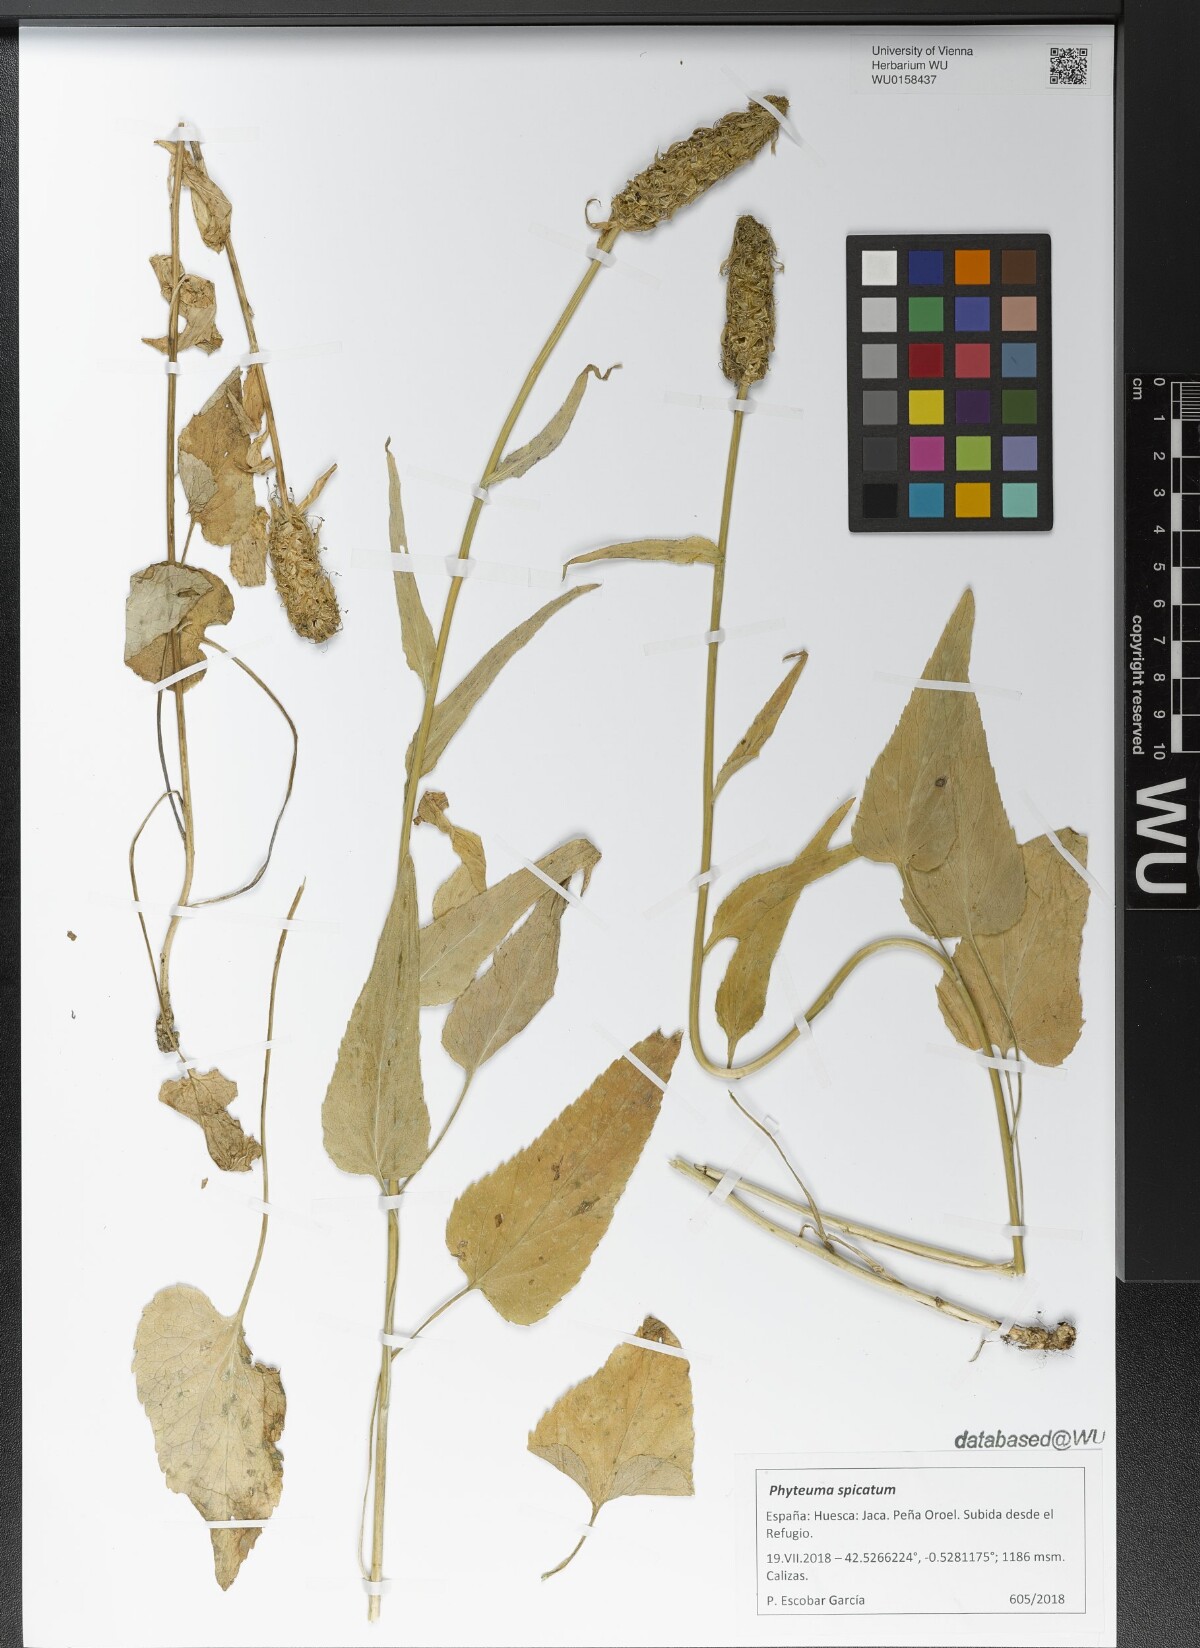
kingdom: Plantae
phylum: Tracheophyta
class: Magnoliopsida
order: Asterales
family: Campanulaceae
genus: Phyteuma
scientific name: Phyteuma spicatum
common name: Spiked rampion
